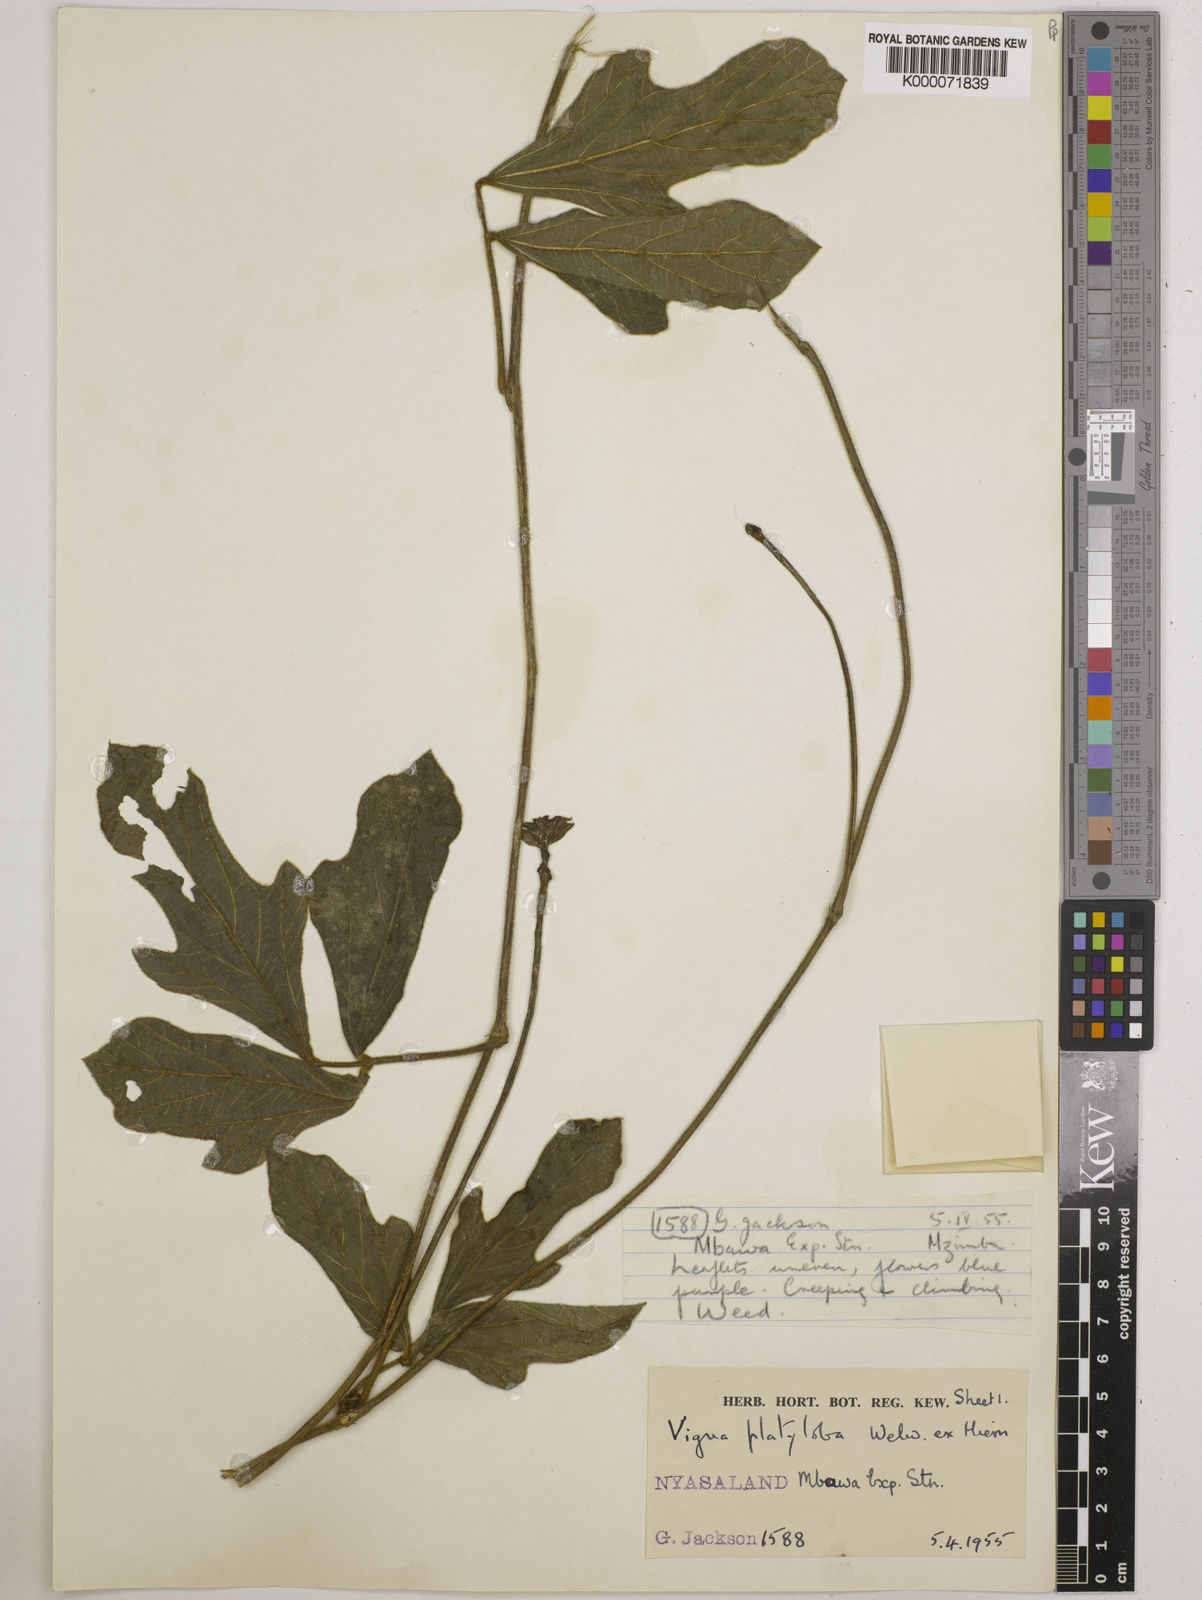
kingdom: Plantae
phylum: Tracheophyta
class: Magnoliopsida
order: Fabales
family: Fabaceae
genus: Vigna
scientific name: Vigna platyloba
